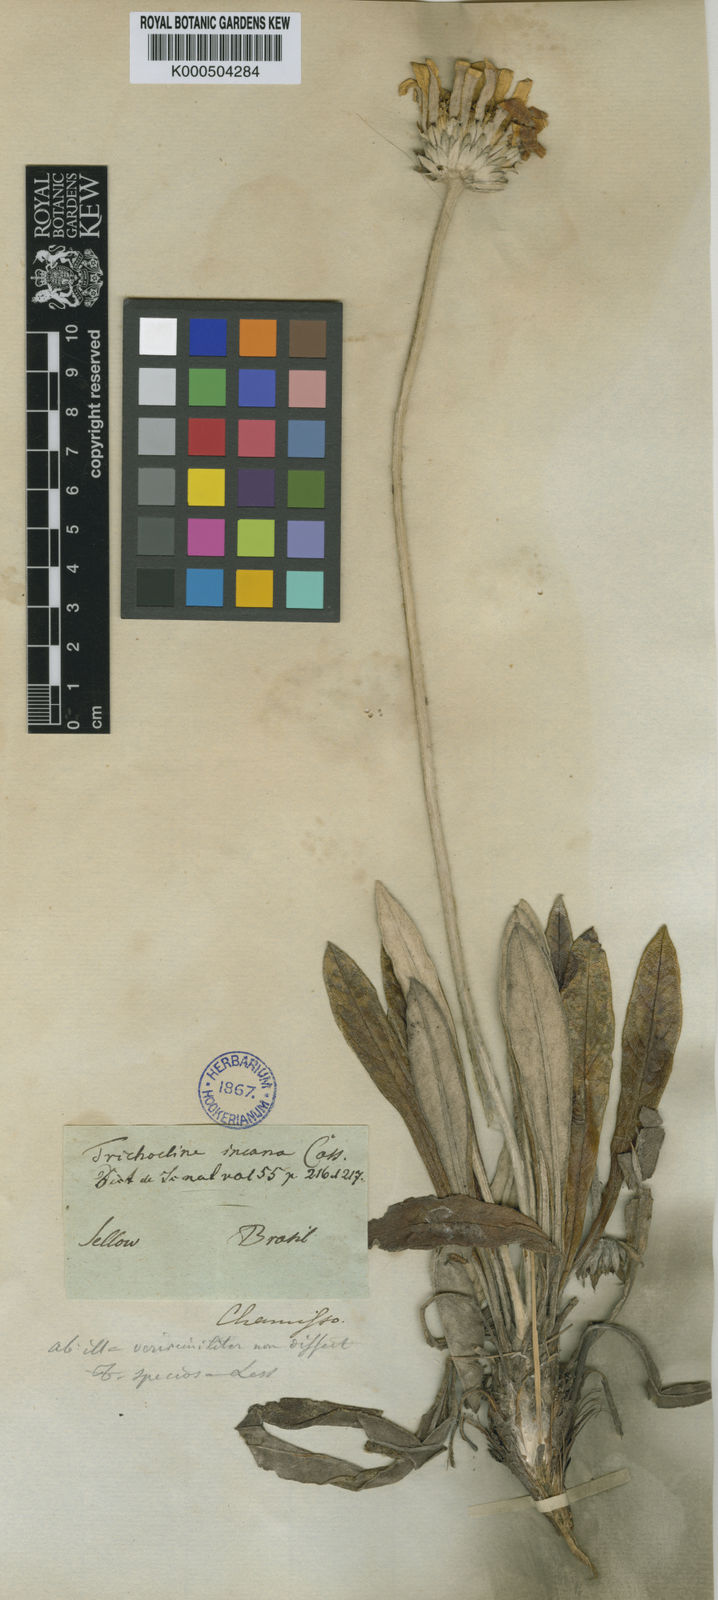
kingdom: Plantae
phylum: Tracheophyta
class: Magnoliopsida
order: Asterales
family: Asteraceae
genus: Trichocline
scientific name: Trichocline speciosa
